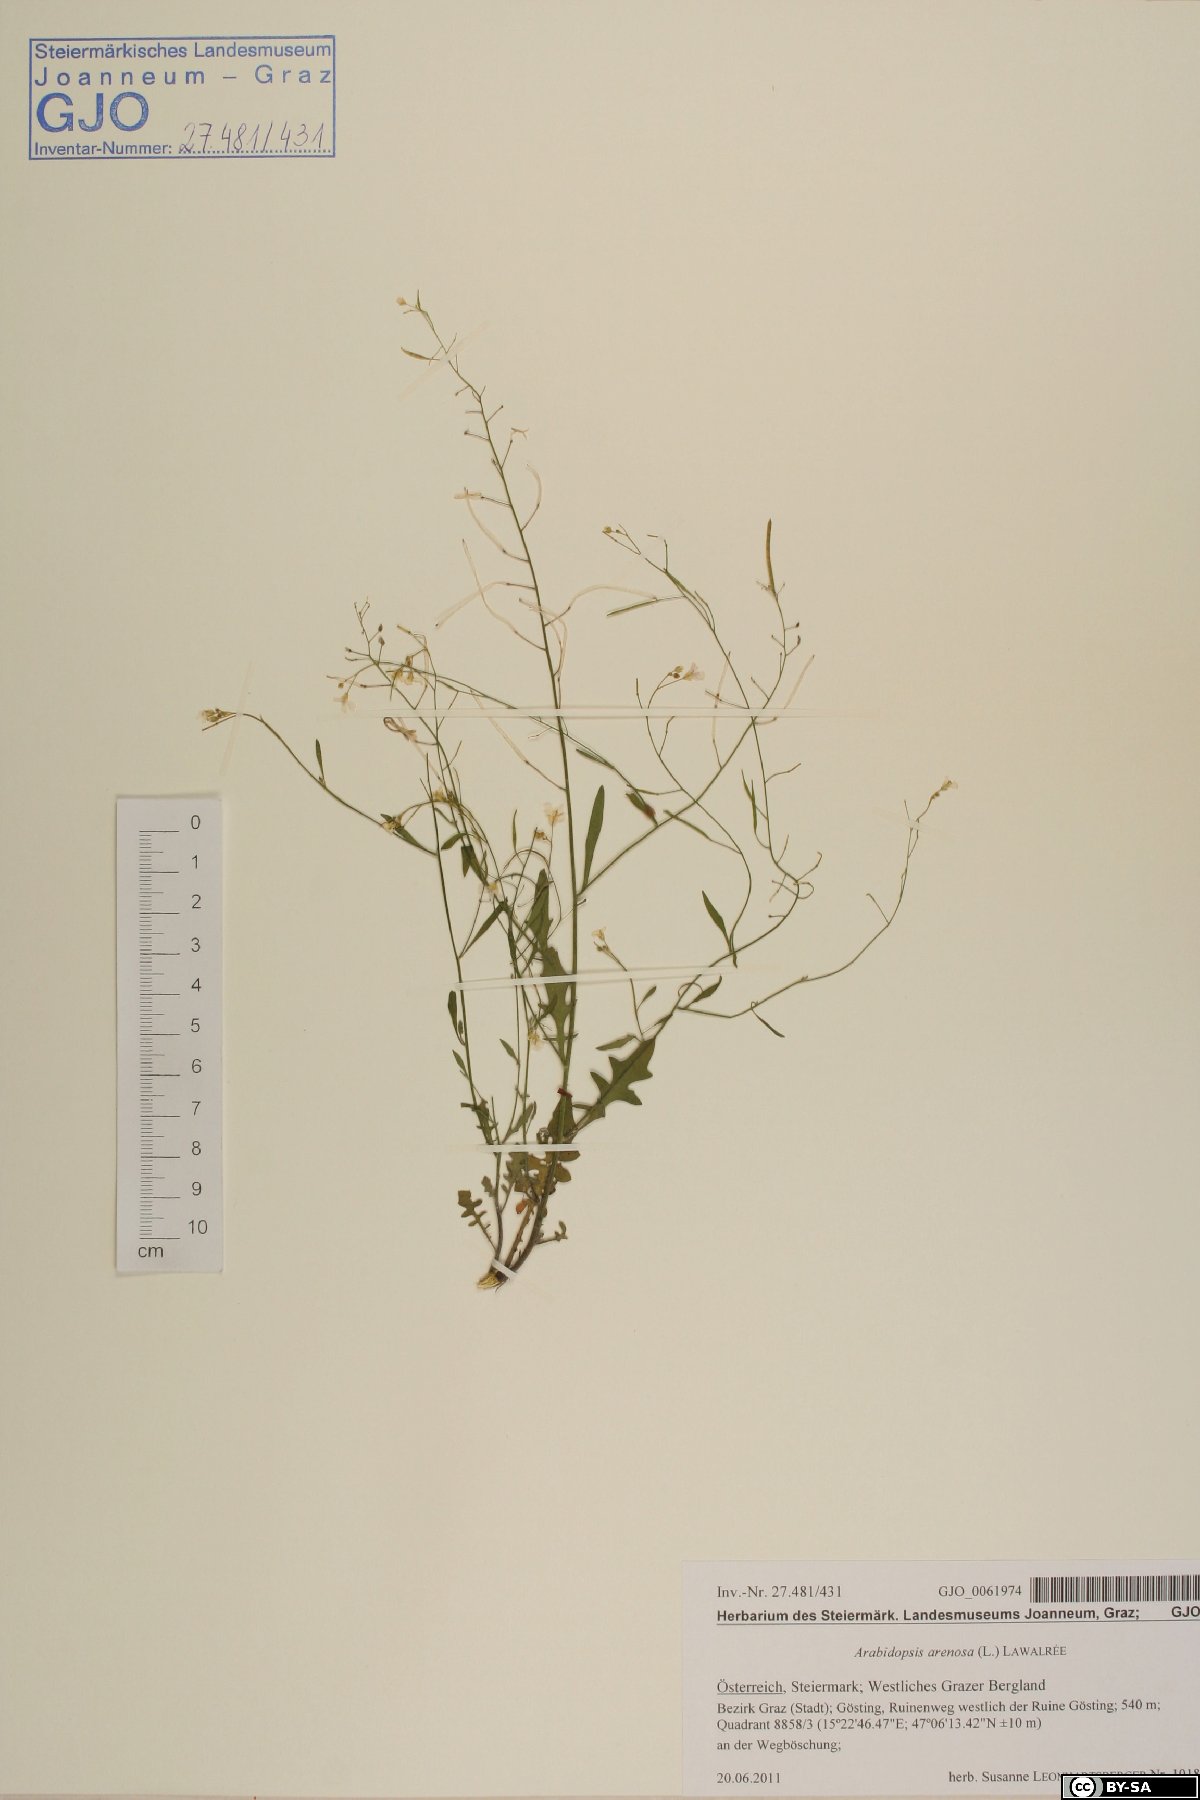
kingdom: Plantae
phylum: Tracheophyta
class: Magnoliopsida
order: Brassicales
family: Brassicaceae
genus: Arabidopsis
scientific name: Arabidopsis arenosa
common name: Sand rock-cress
